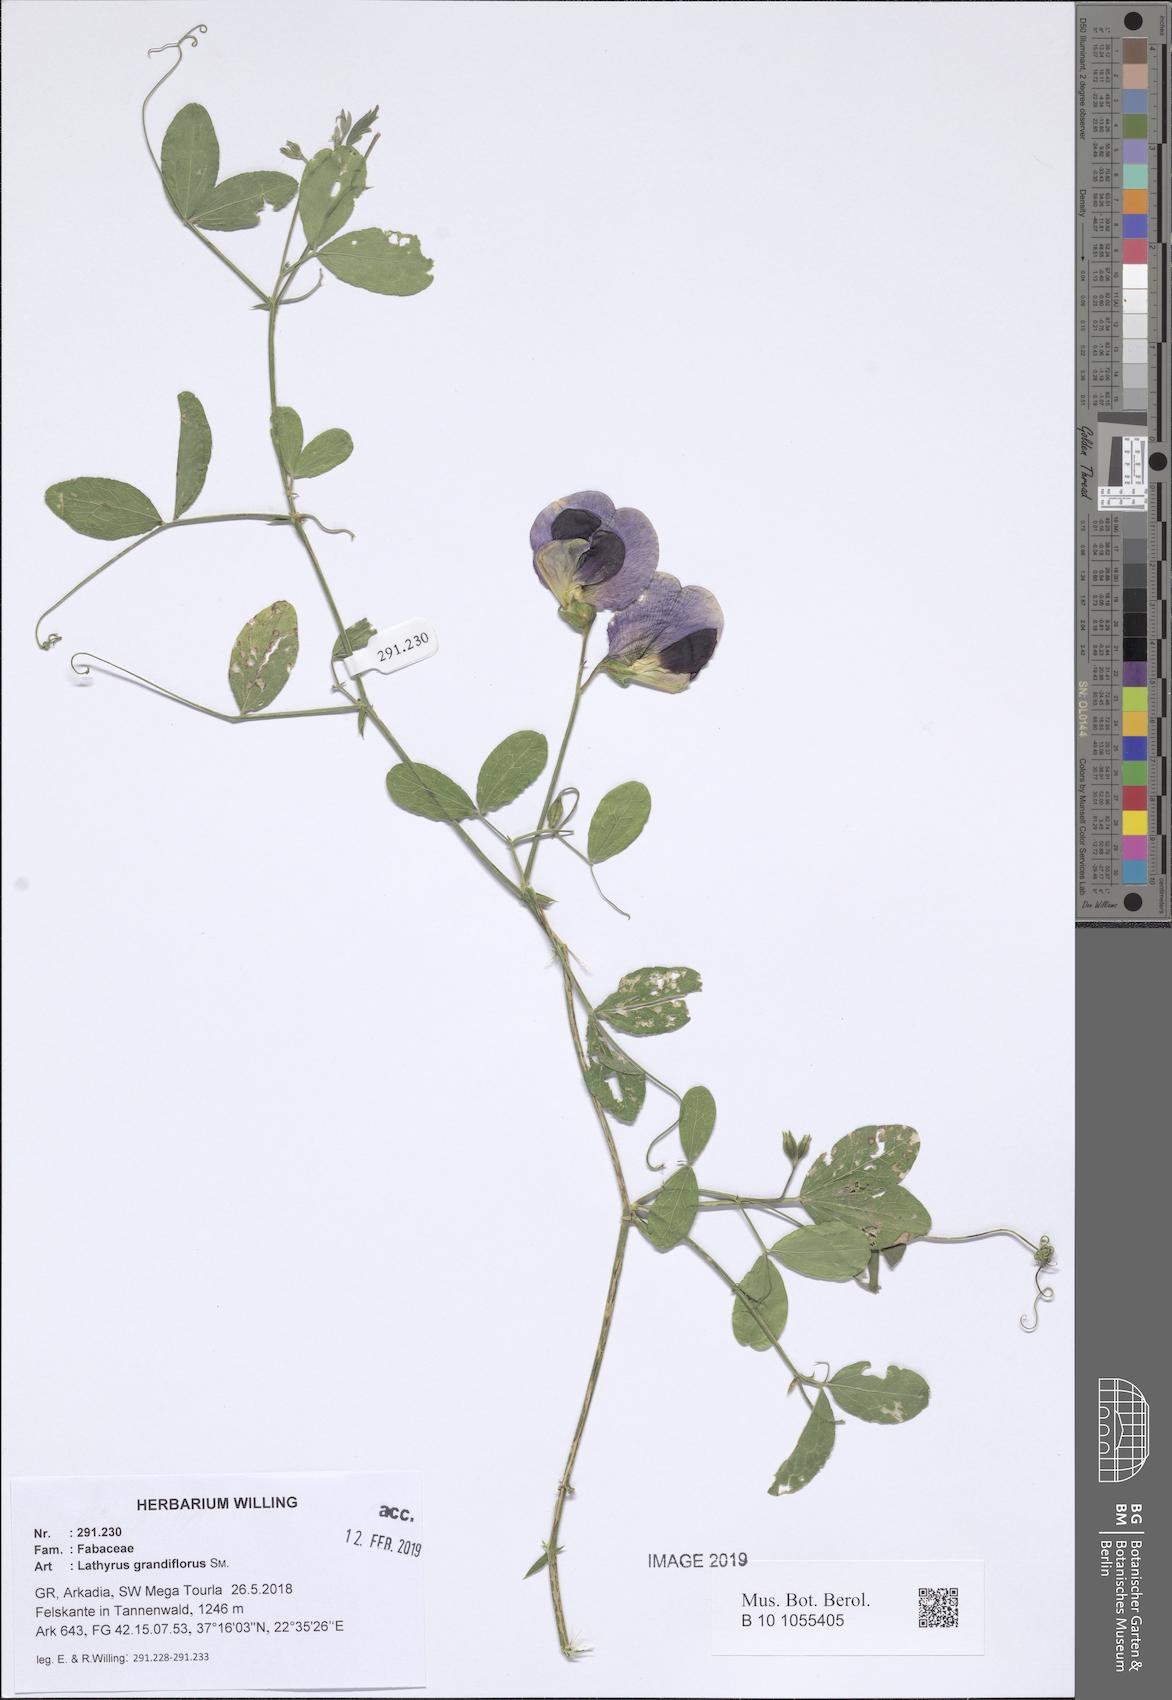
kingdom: Plantae
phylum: Tracheophyta
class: Magnoliopsida
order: Fabales
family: Fabaceae
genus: Lathyrus
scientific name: Lathyrus grandiflorus
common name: Two-flowered everlasting-pea
